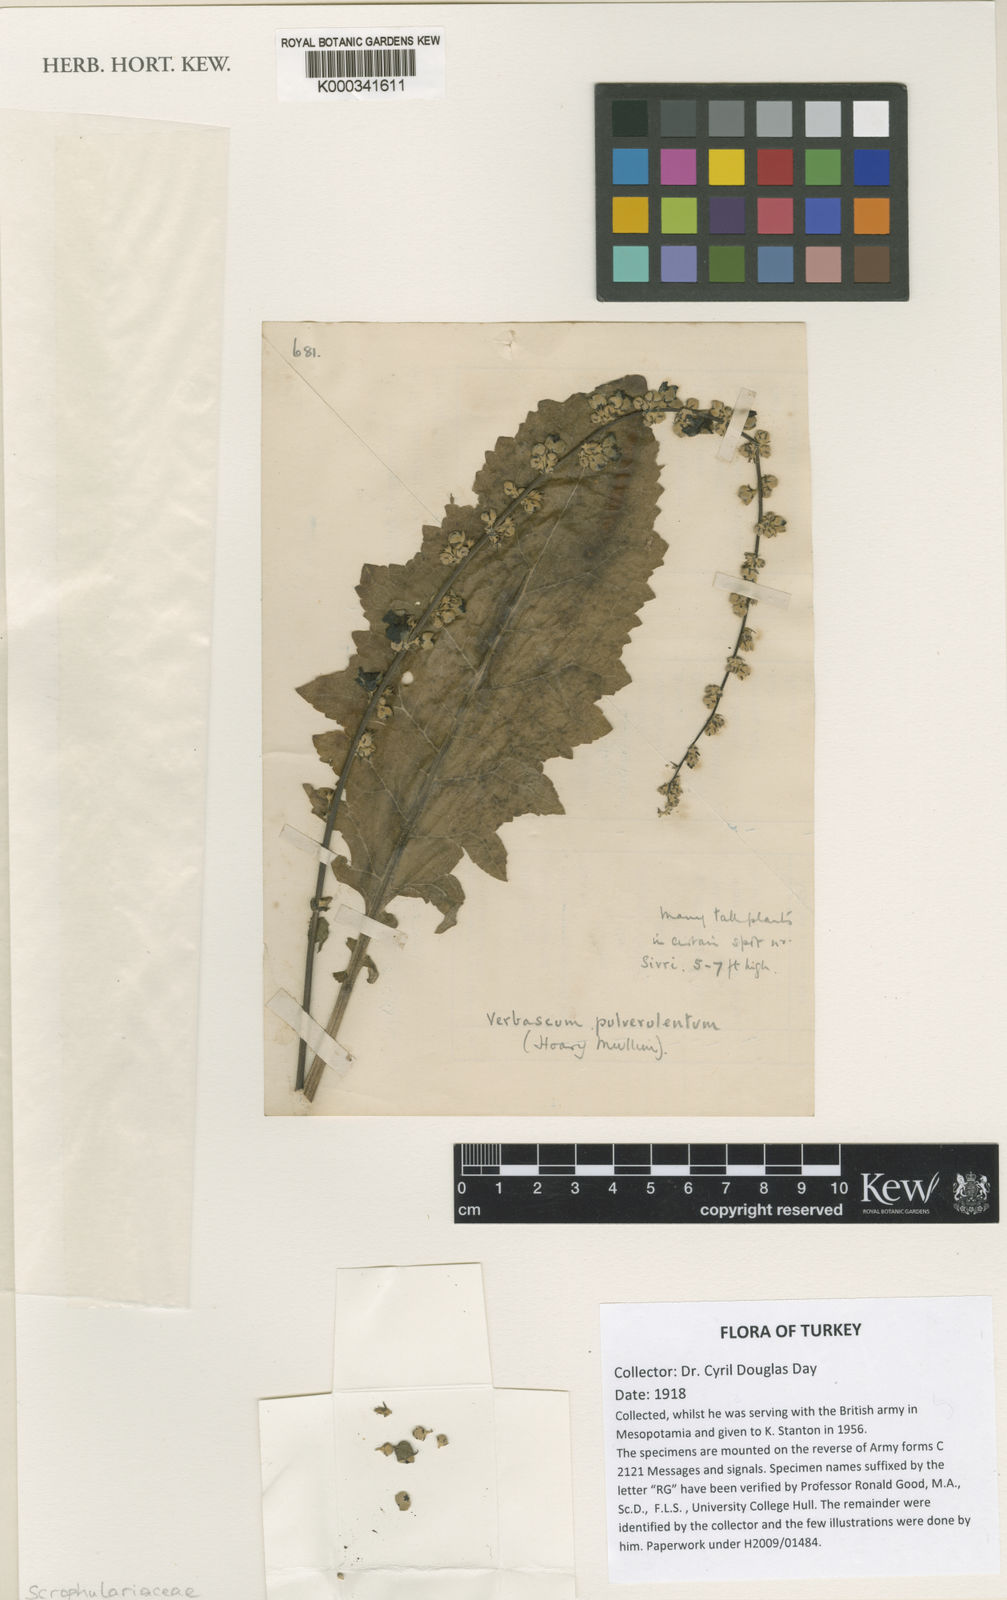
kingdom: Plantae
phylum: Tracheophyta
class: Magnoliopsida
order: Lamiales
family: Scrophulariaceae
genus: Verbascum
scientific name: Verbascum pulverulentum
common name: Broad-leaf mullein
